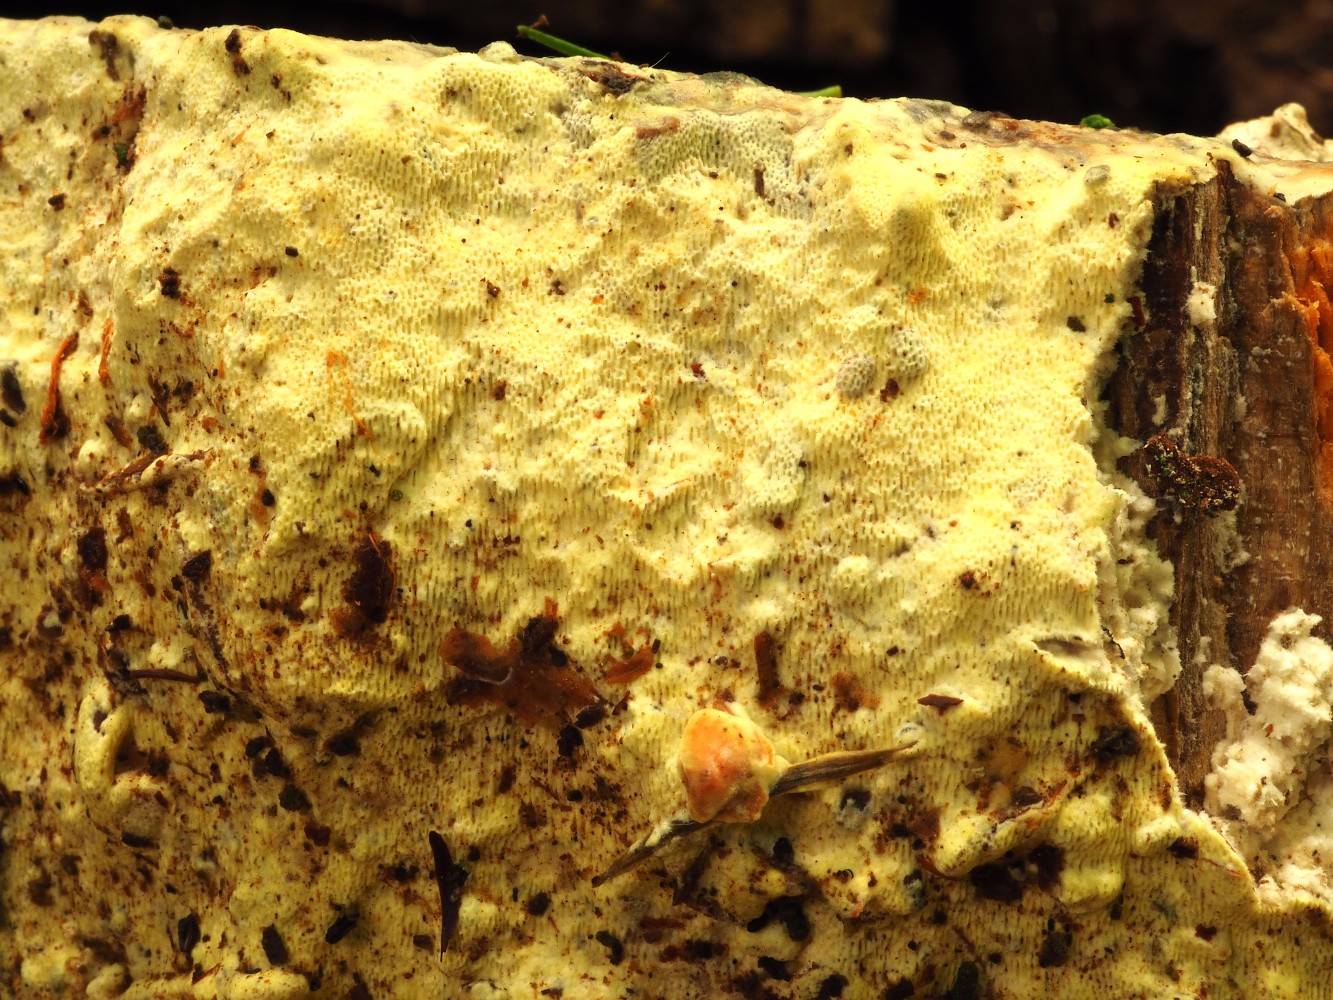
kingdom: Fungi
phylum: Basidiomycota
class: Agaricomycetes
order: Polyporales
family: Fomitopsidaceae
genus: Daedalea
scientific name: Daedalea xantha
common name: gul sejporesvamp
